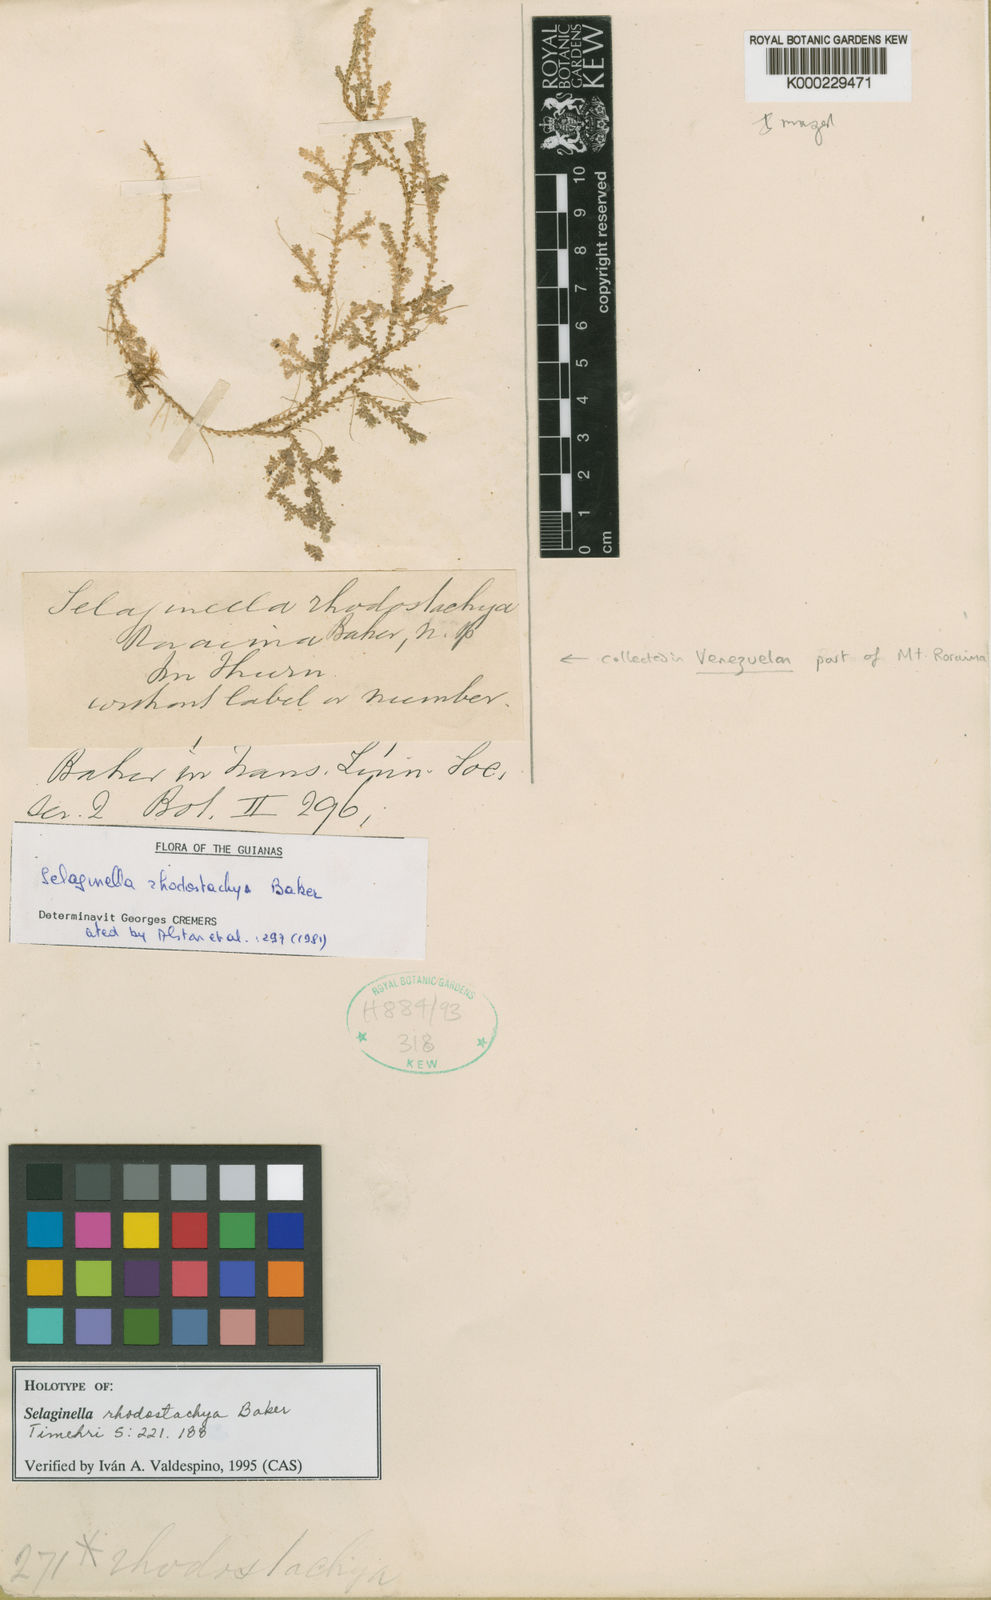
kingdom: Plantae
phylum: Tracheophyta
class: Lycopodiopsida
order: Selaginellales
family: Selaginellaceae
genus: Selaginella
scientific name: Selaginella rhodostachya
